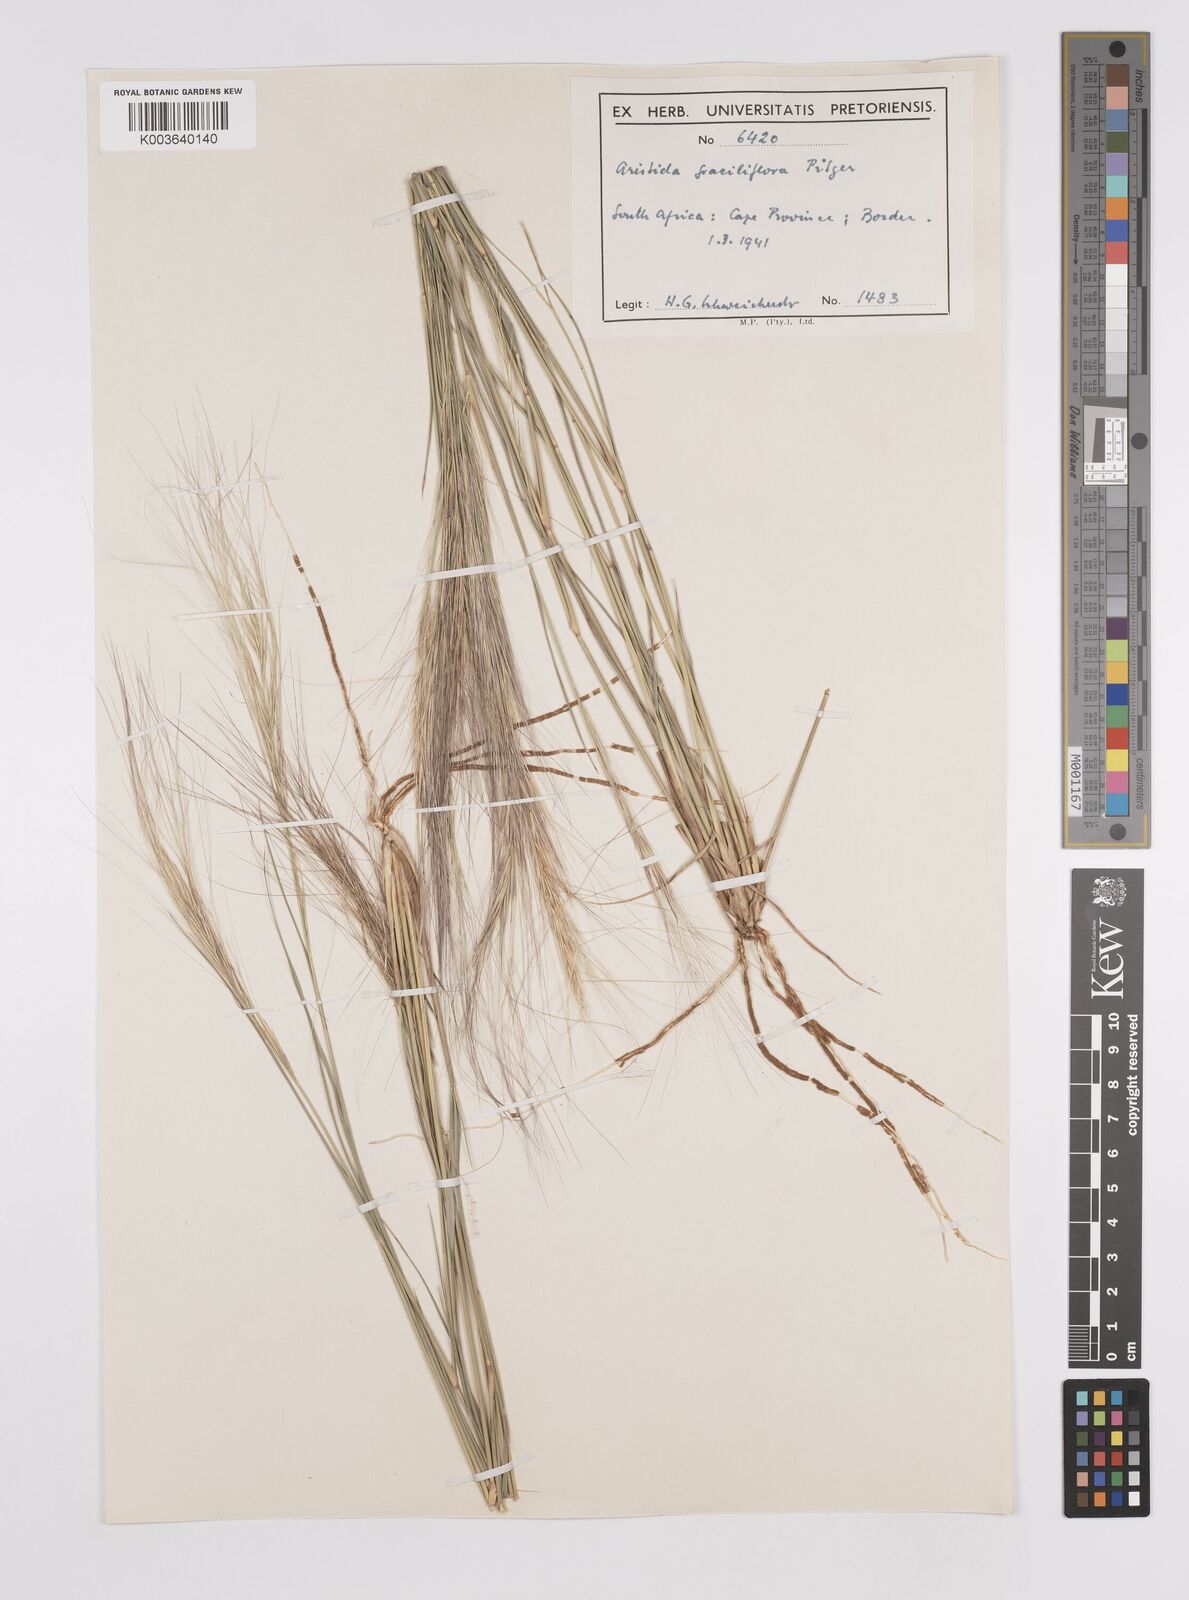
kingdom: Plantae
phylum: Tracheophyta
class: Liliopsida
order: Poales
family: Poaceae
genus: Aristida
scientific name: Aristida stipitata
